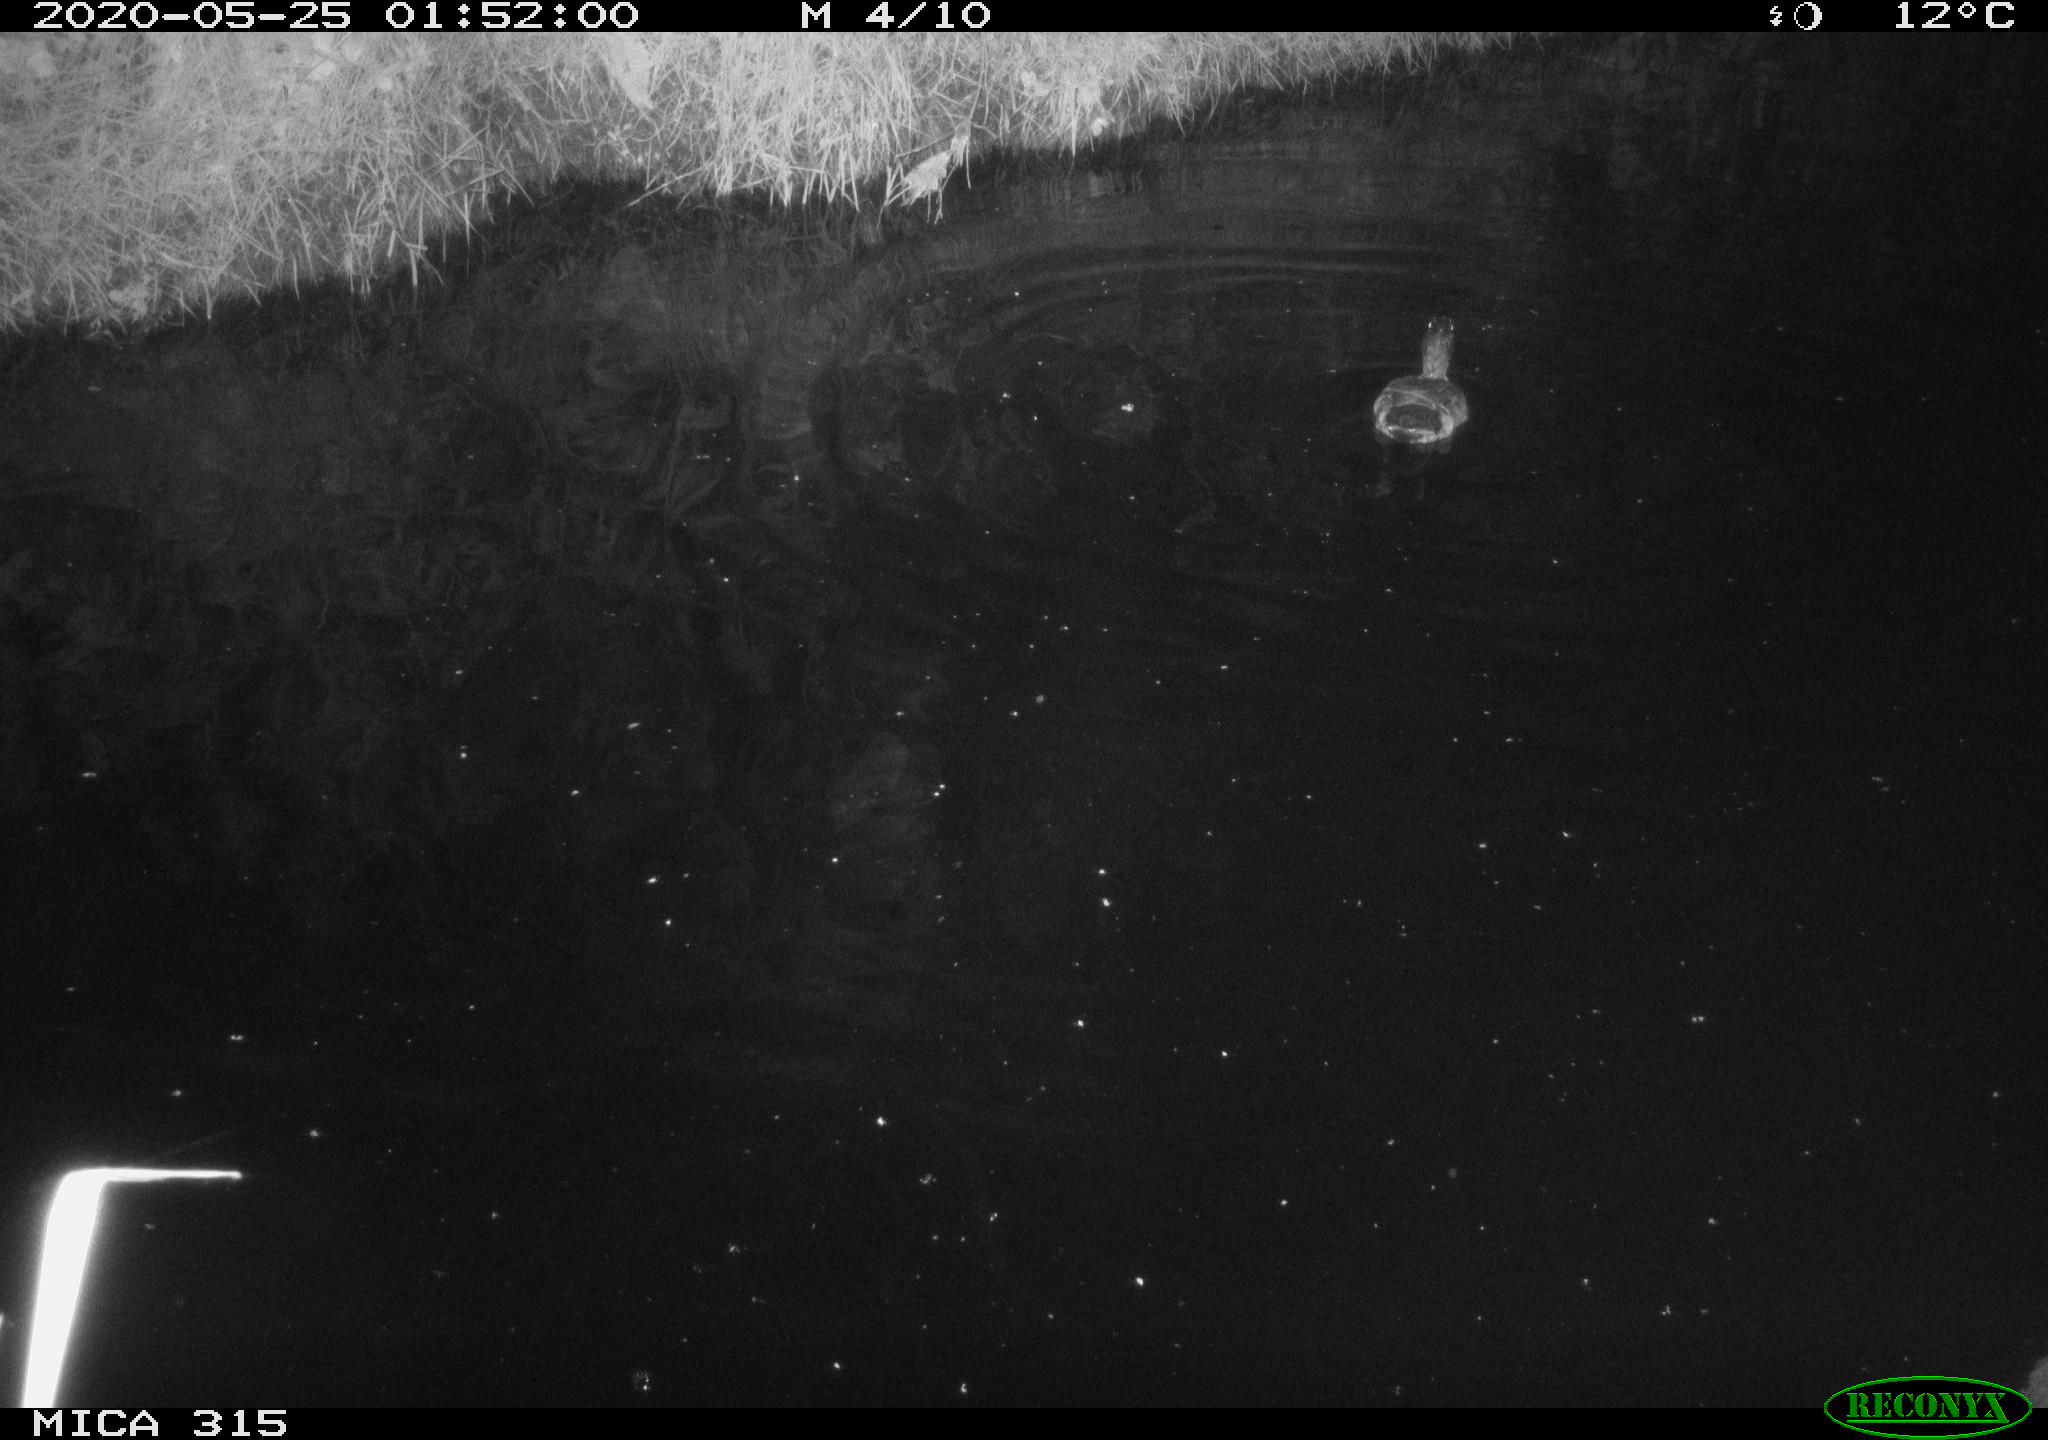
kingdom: Animalia
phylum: Chordata
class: Aves
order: Anseriformes
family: Anatidae
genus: Anas
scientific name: Anas platyrhynchos
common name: Mallard
